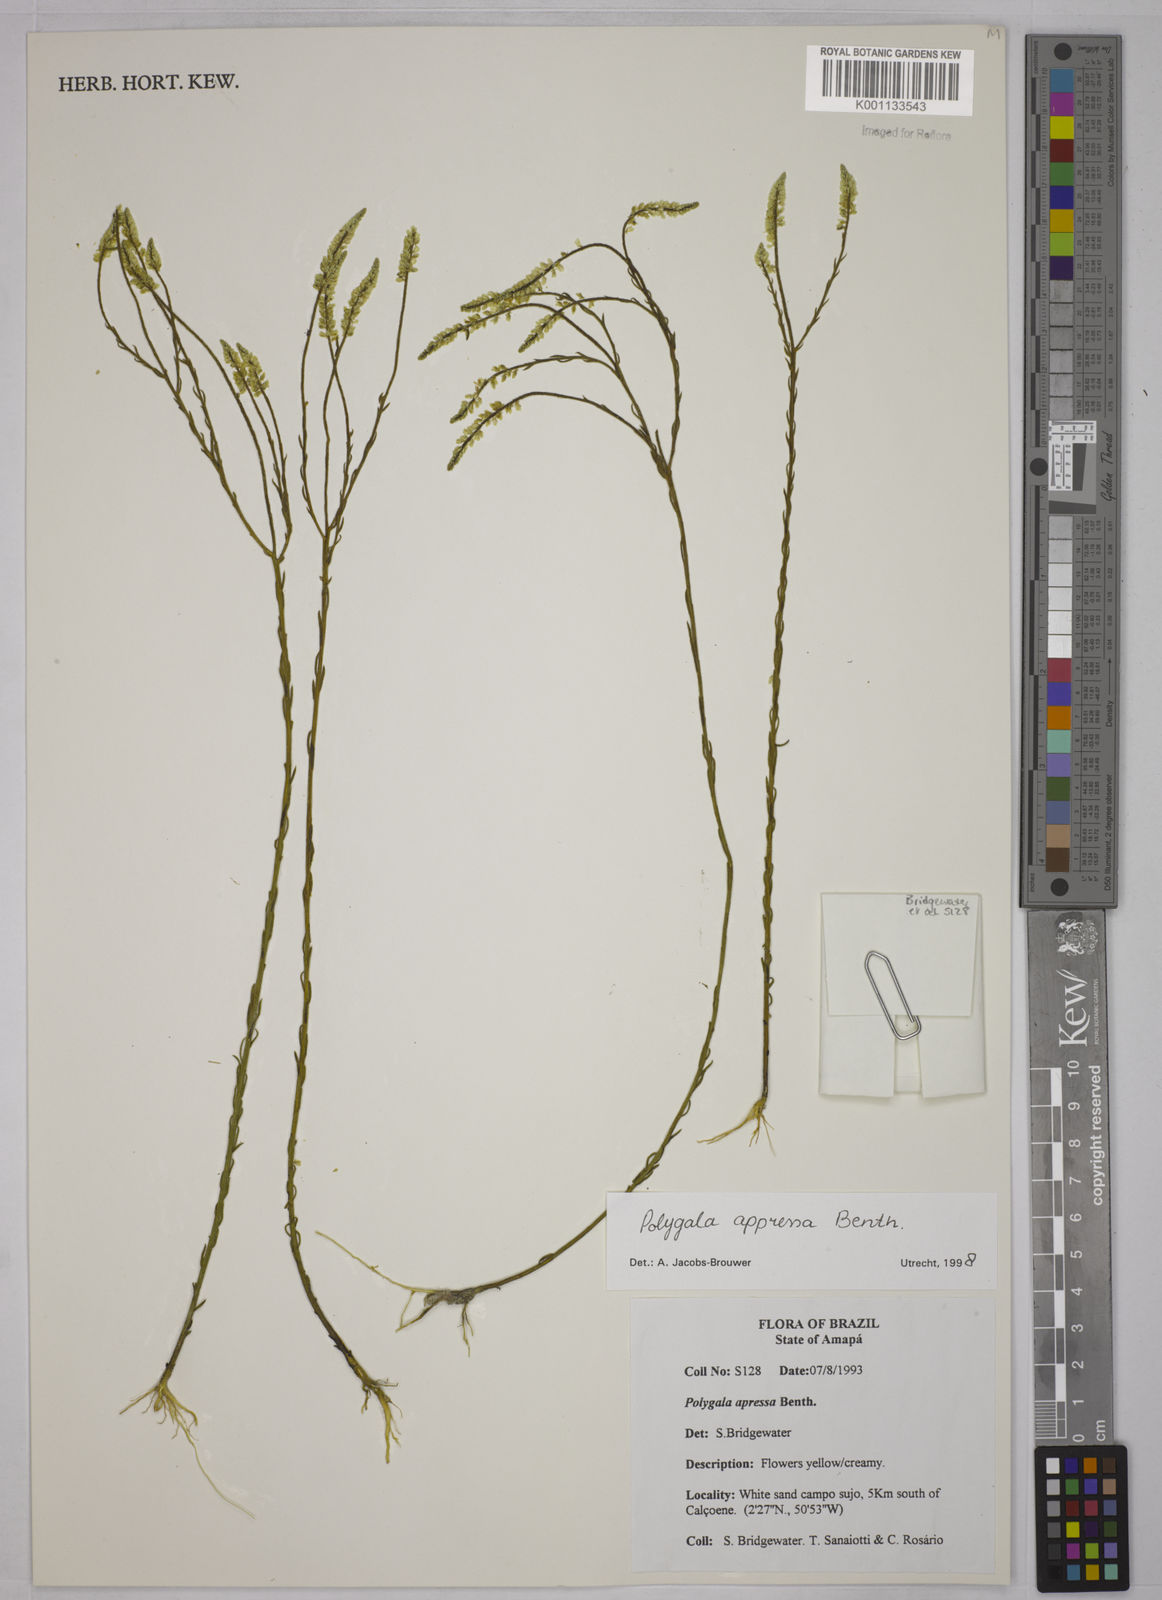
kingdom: Plantae
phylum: Tracheophyta
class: Magnoliopsida
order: Fabales
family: Polygalaceae
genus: Polygala
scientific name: Polygala appressa
